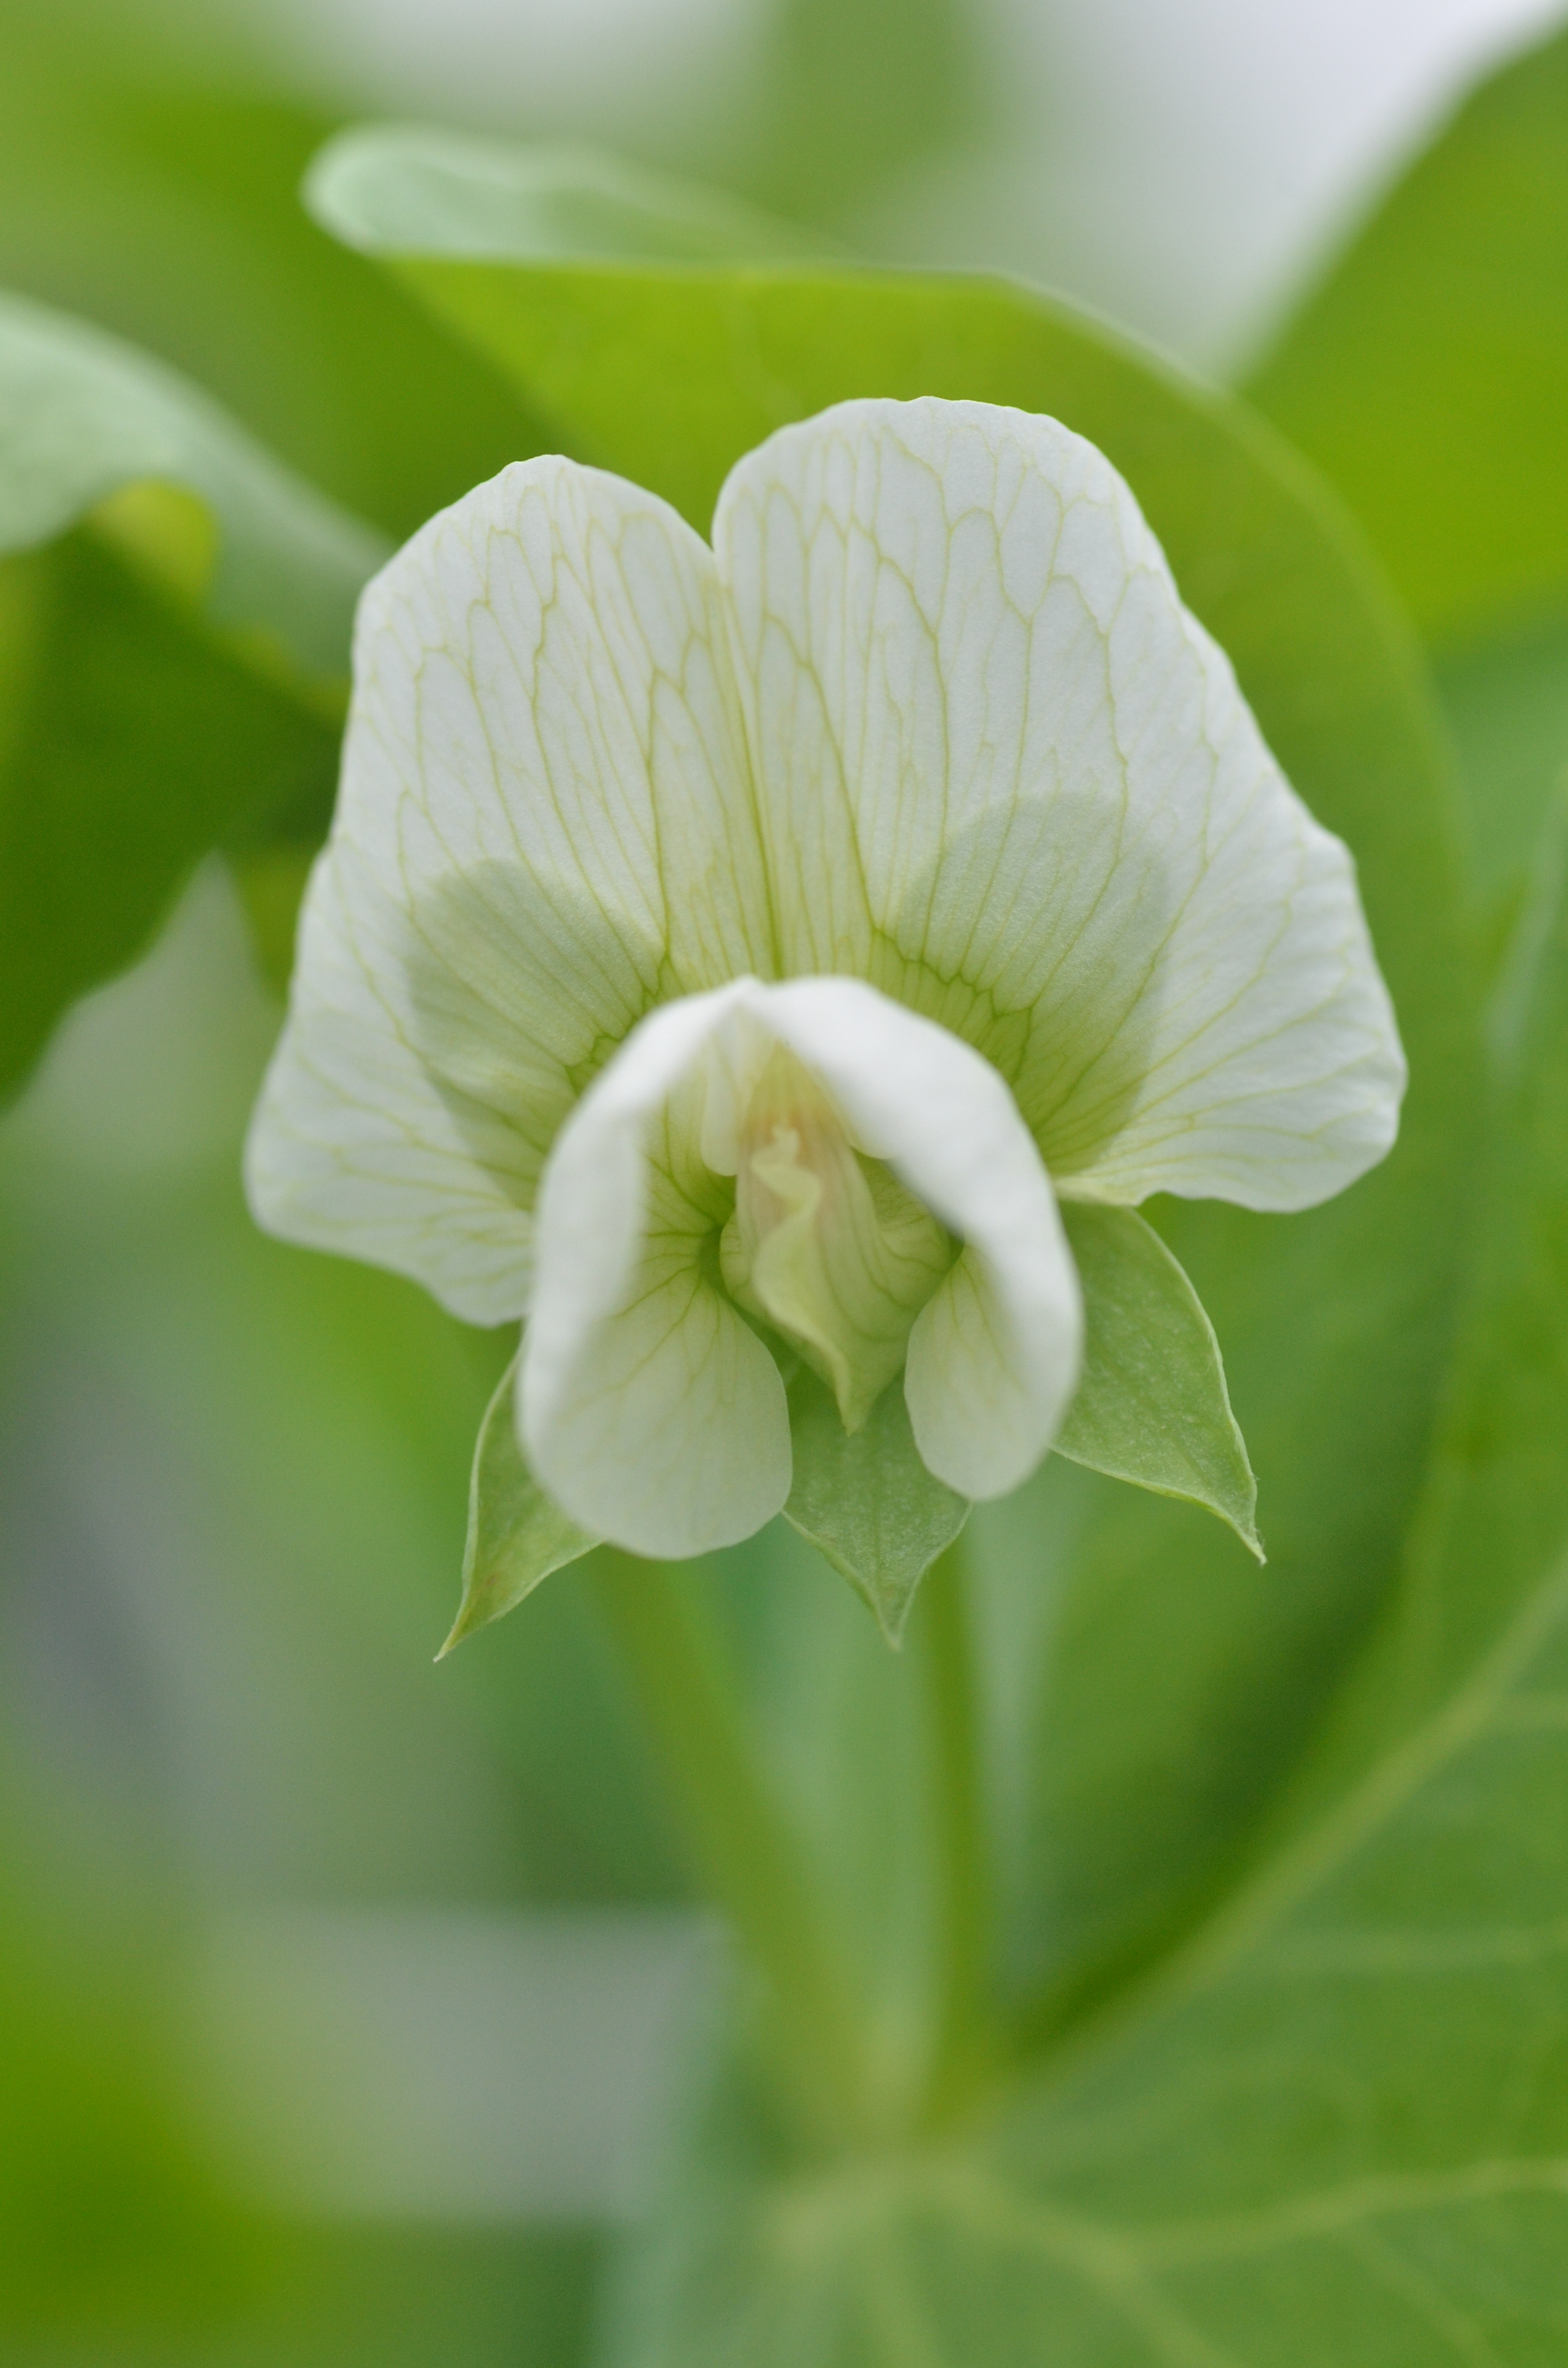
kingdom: Plantae
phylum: Tracheophyta
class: Magnoliopsida
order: Fabales
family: Fabaceae
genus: Lathyrus
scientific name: Lathyrus oleraceus
